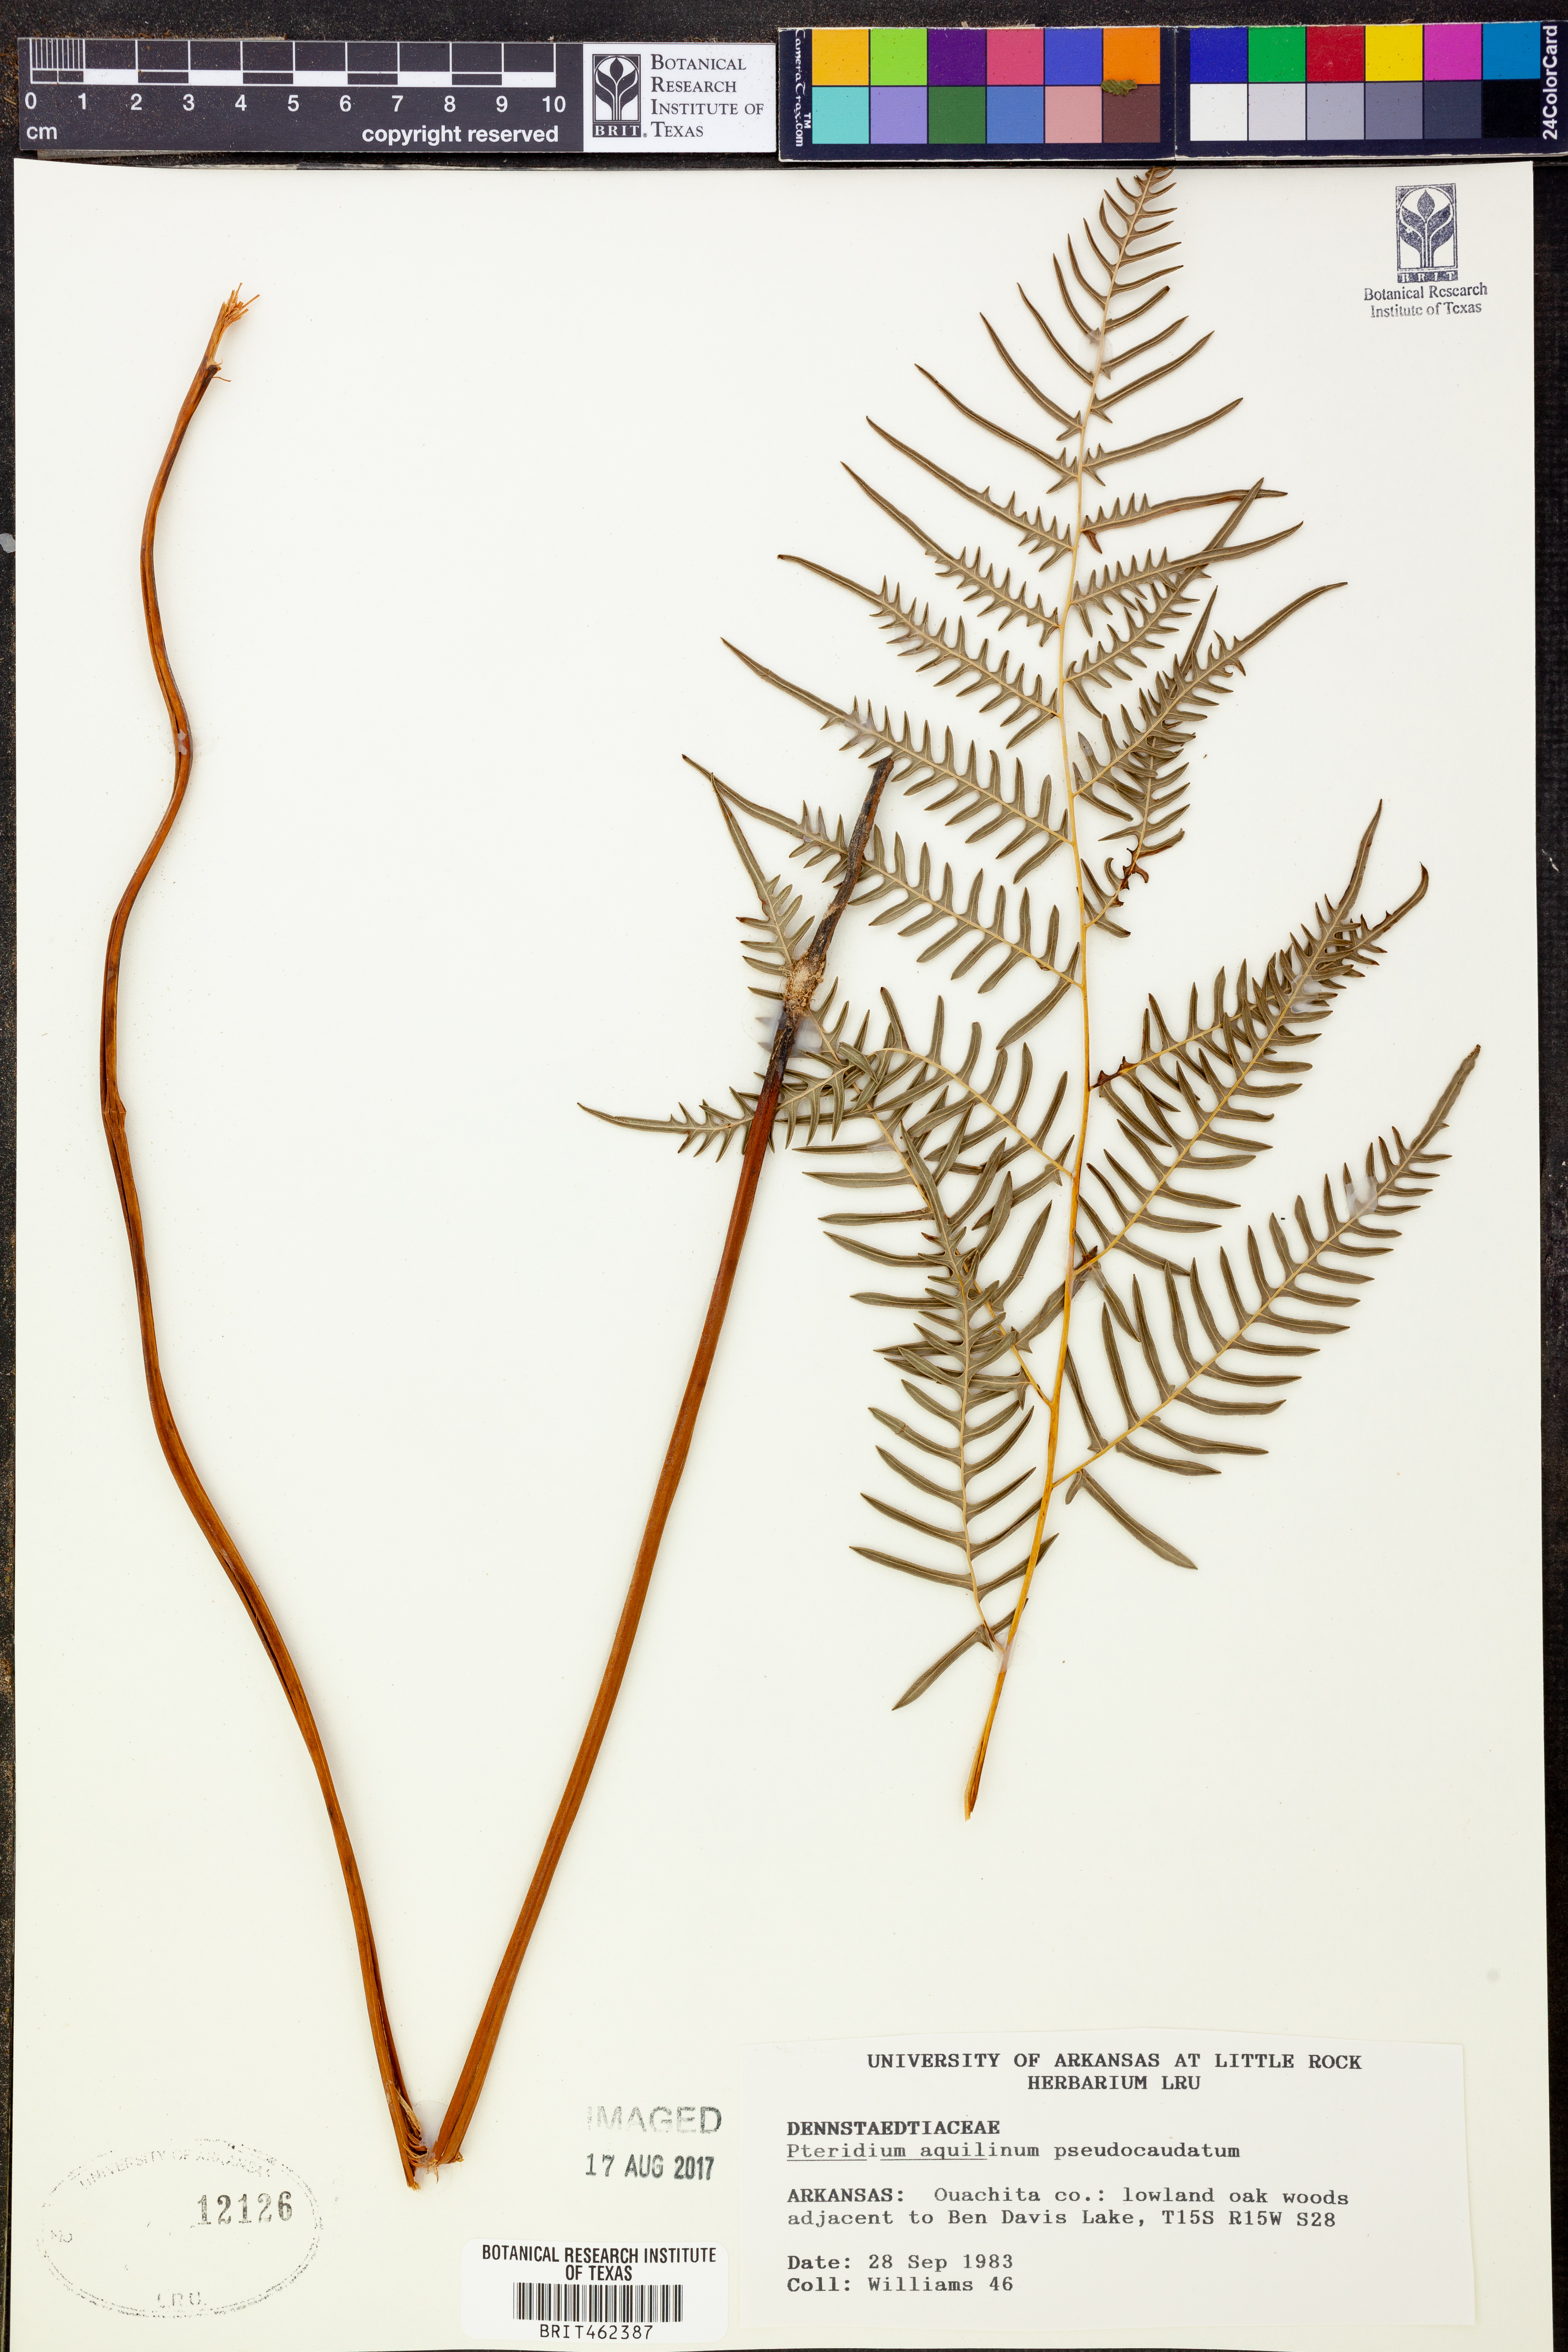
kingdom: Plantae
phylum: Tracheophyta
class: Polypodiopsida
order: Polypodiales
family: Dennstaedtiaceae
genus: Pteridium
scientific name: Pteridium aquilinum
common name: Bracken
